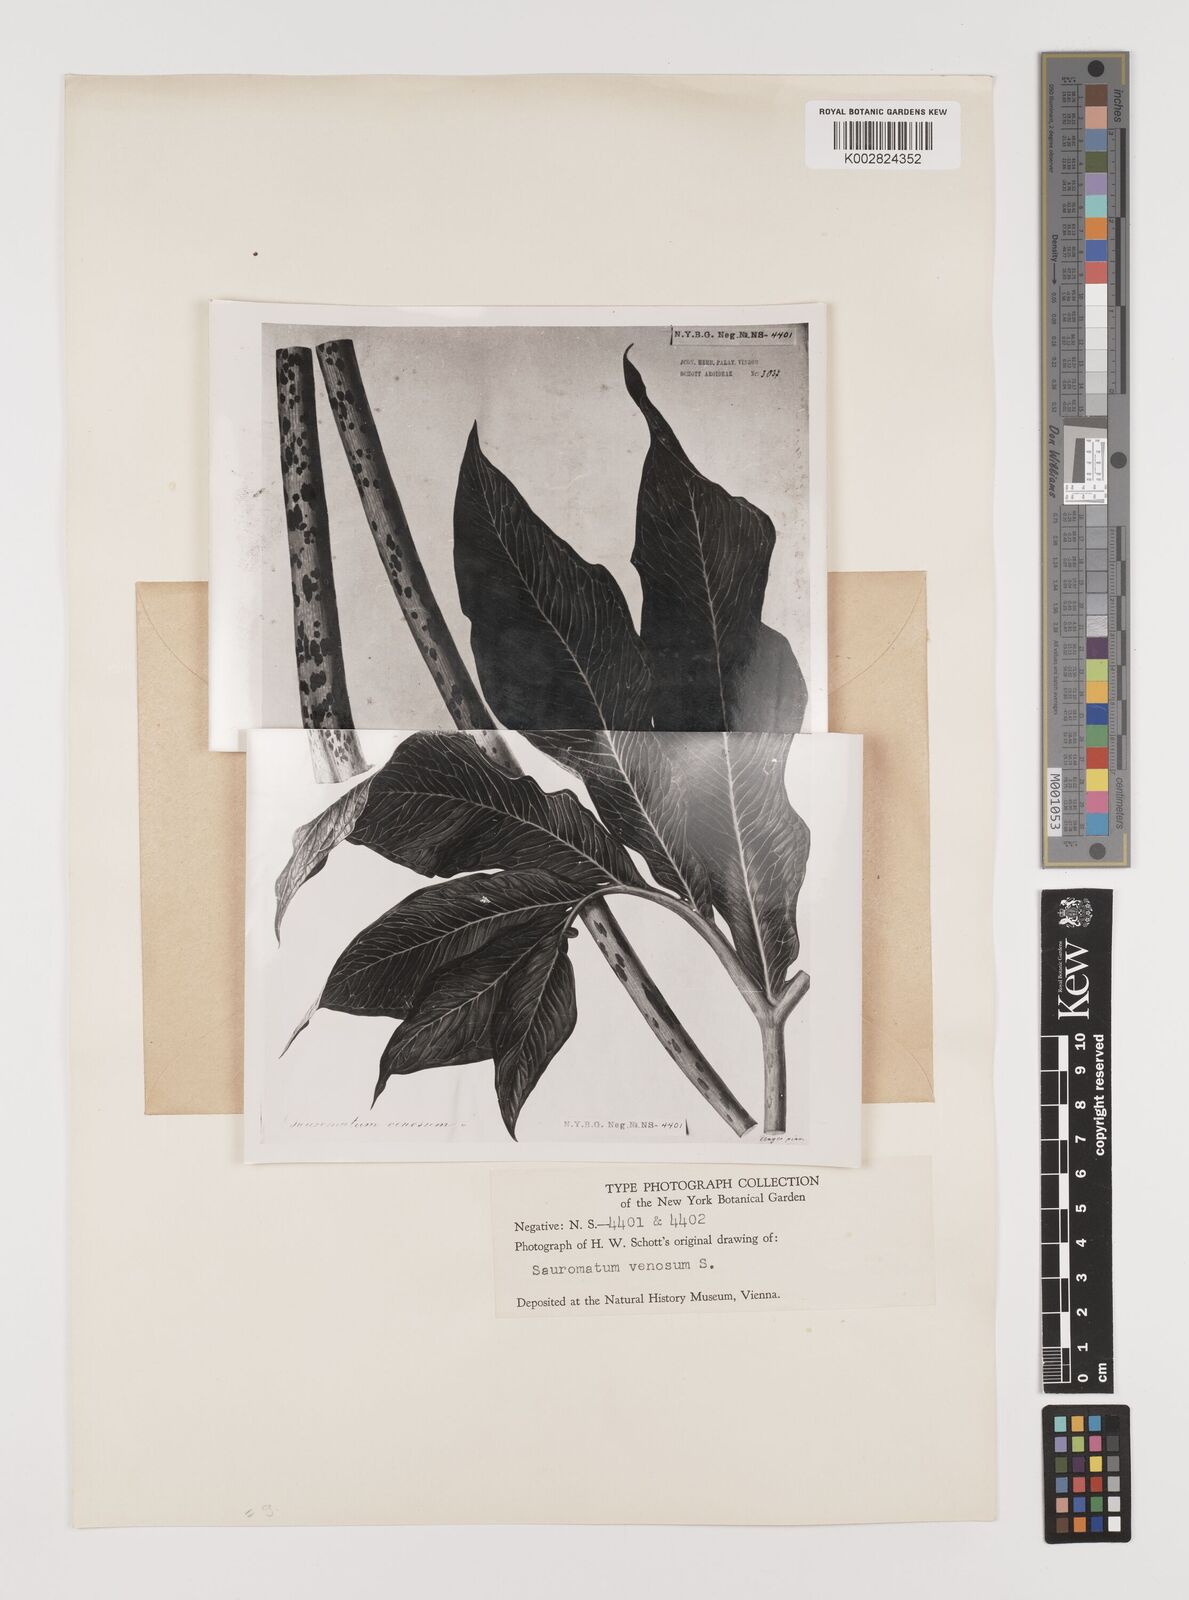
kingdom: Plantae
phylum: Tracheophyta
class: Liliopsida
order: Alismatales
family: Araceae
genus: Sauromatum
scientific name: Sauromatum venosum
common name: Voodoo lily
